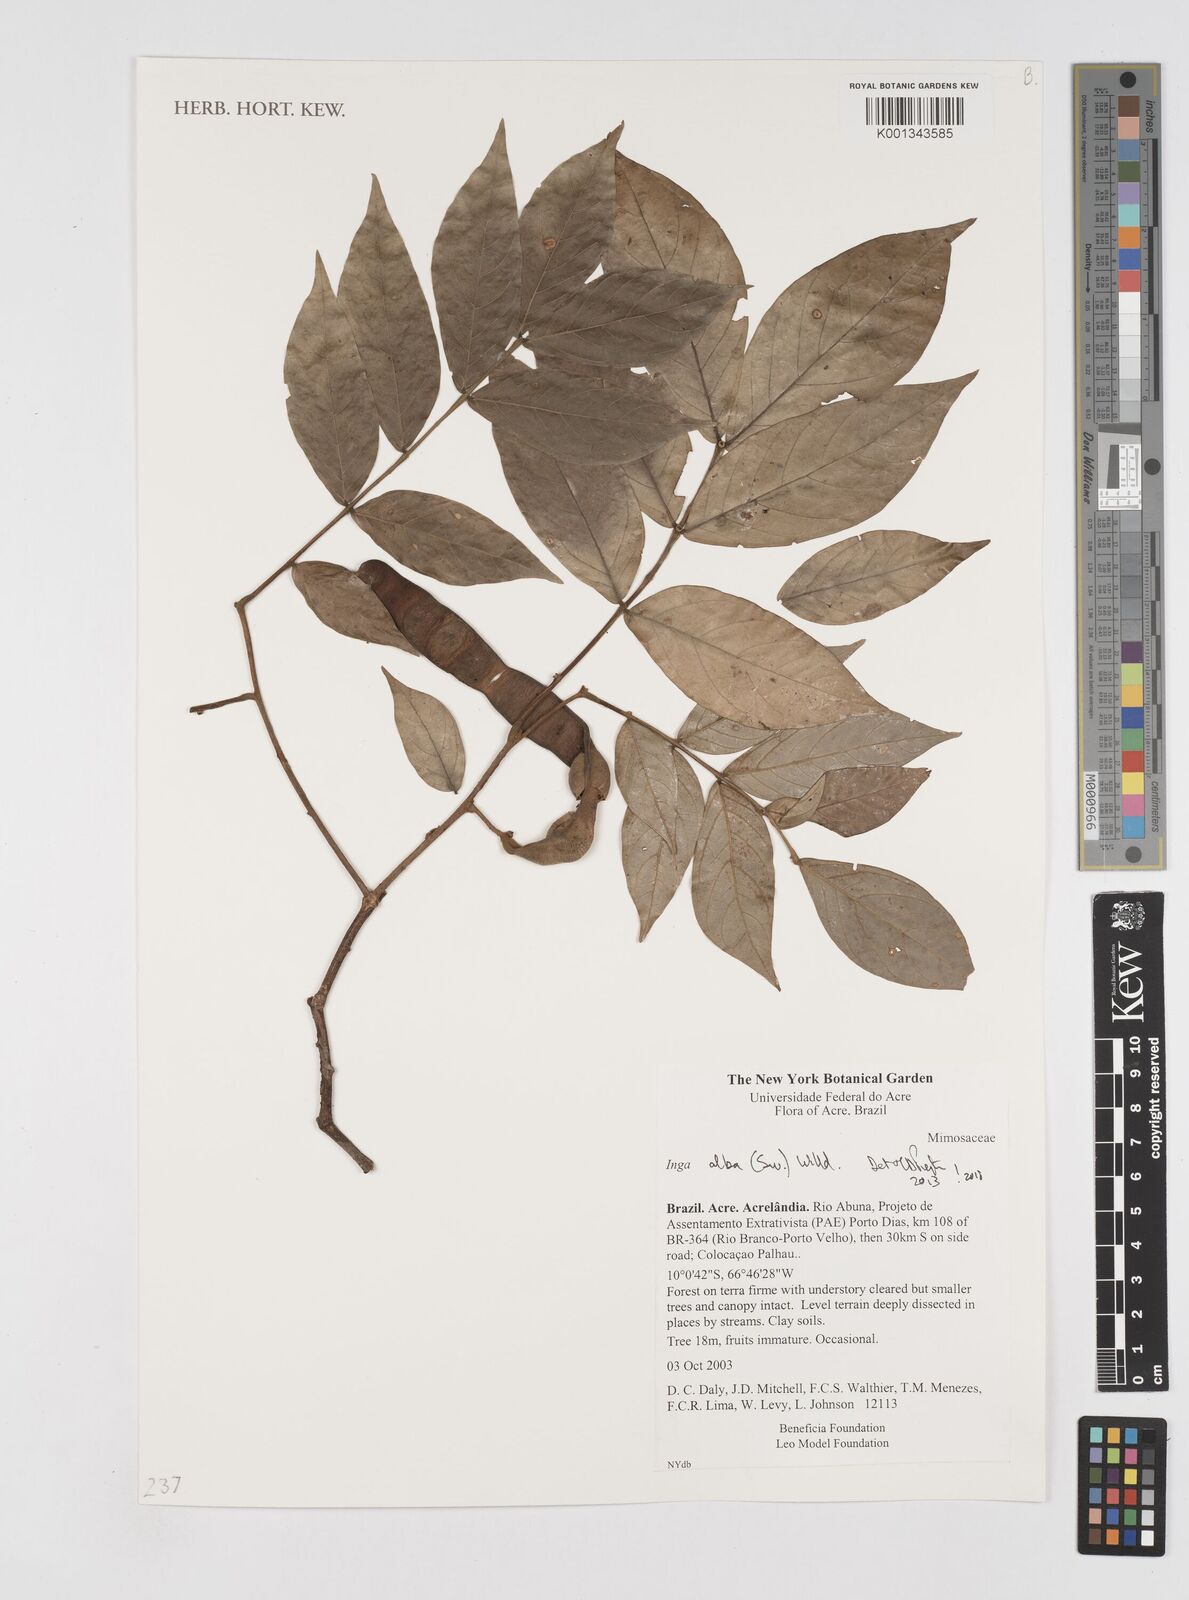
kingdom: Plantae
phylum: Tracheophyta
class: Magnoliopsida
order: Fabales
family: Fabaceae
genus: Inga
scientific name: Inga alba
